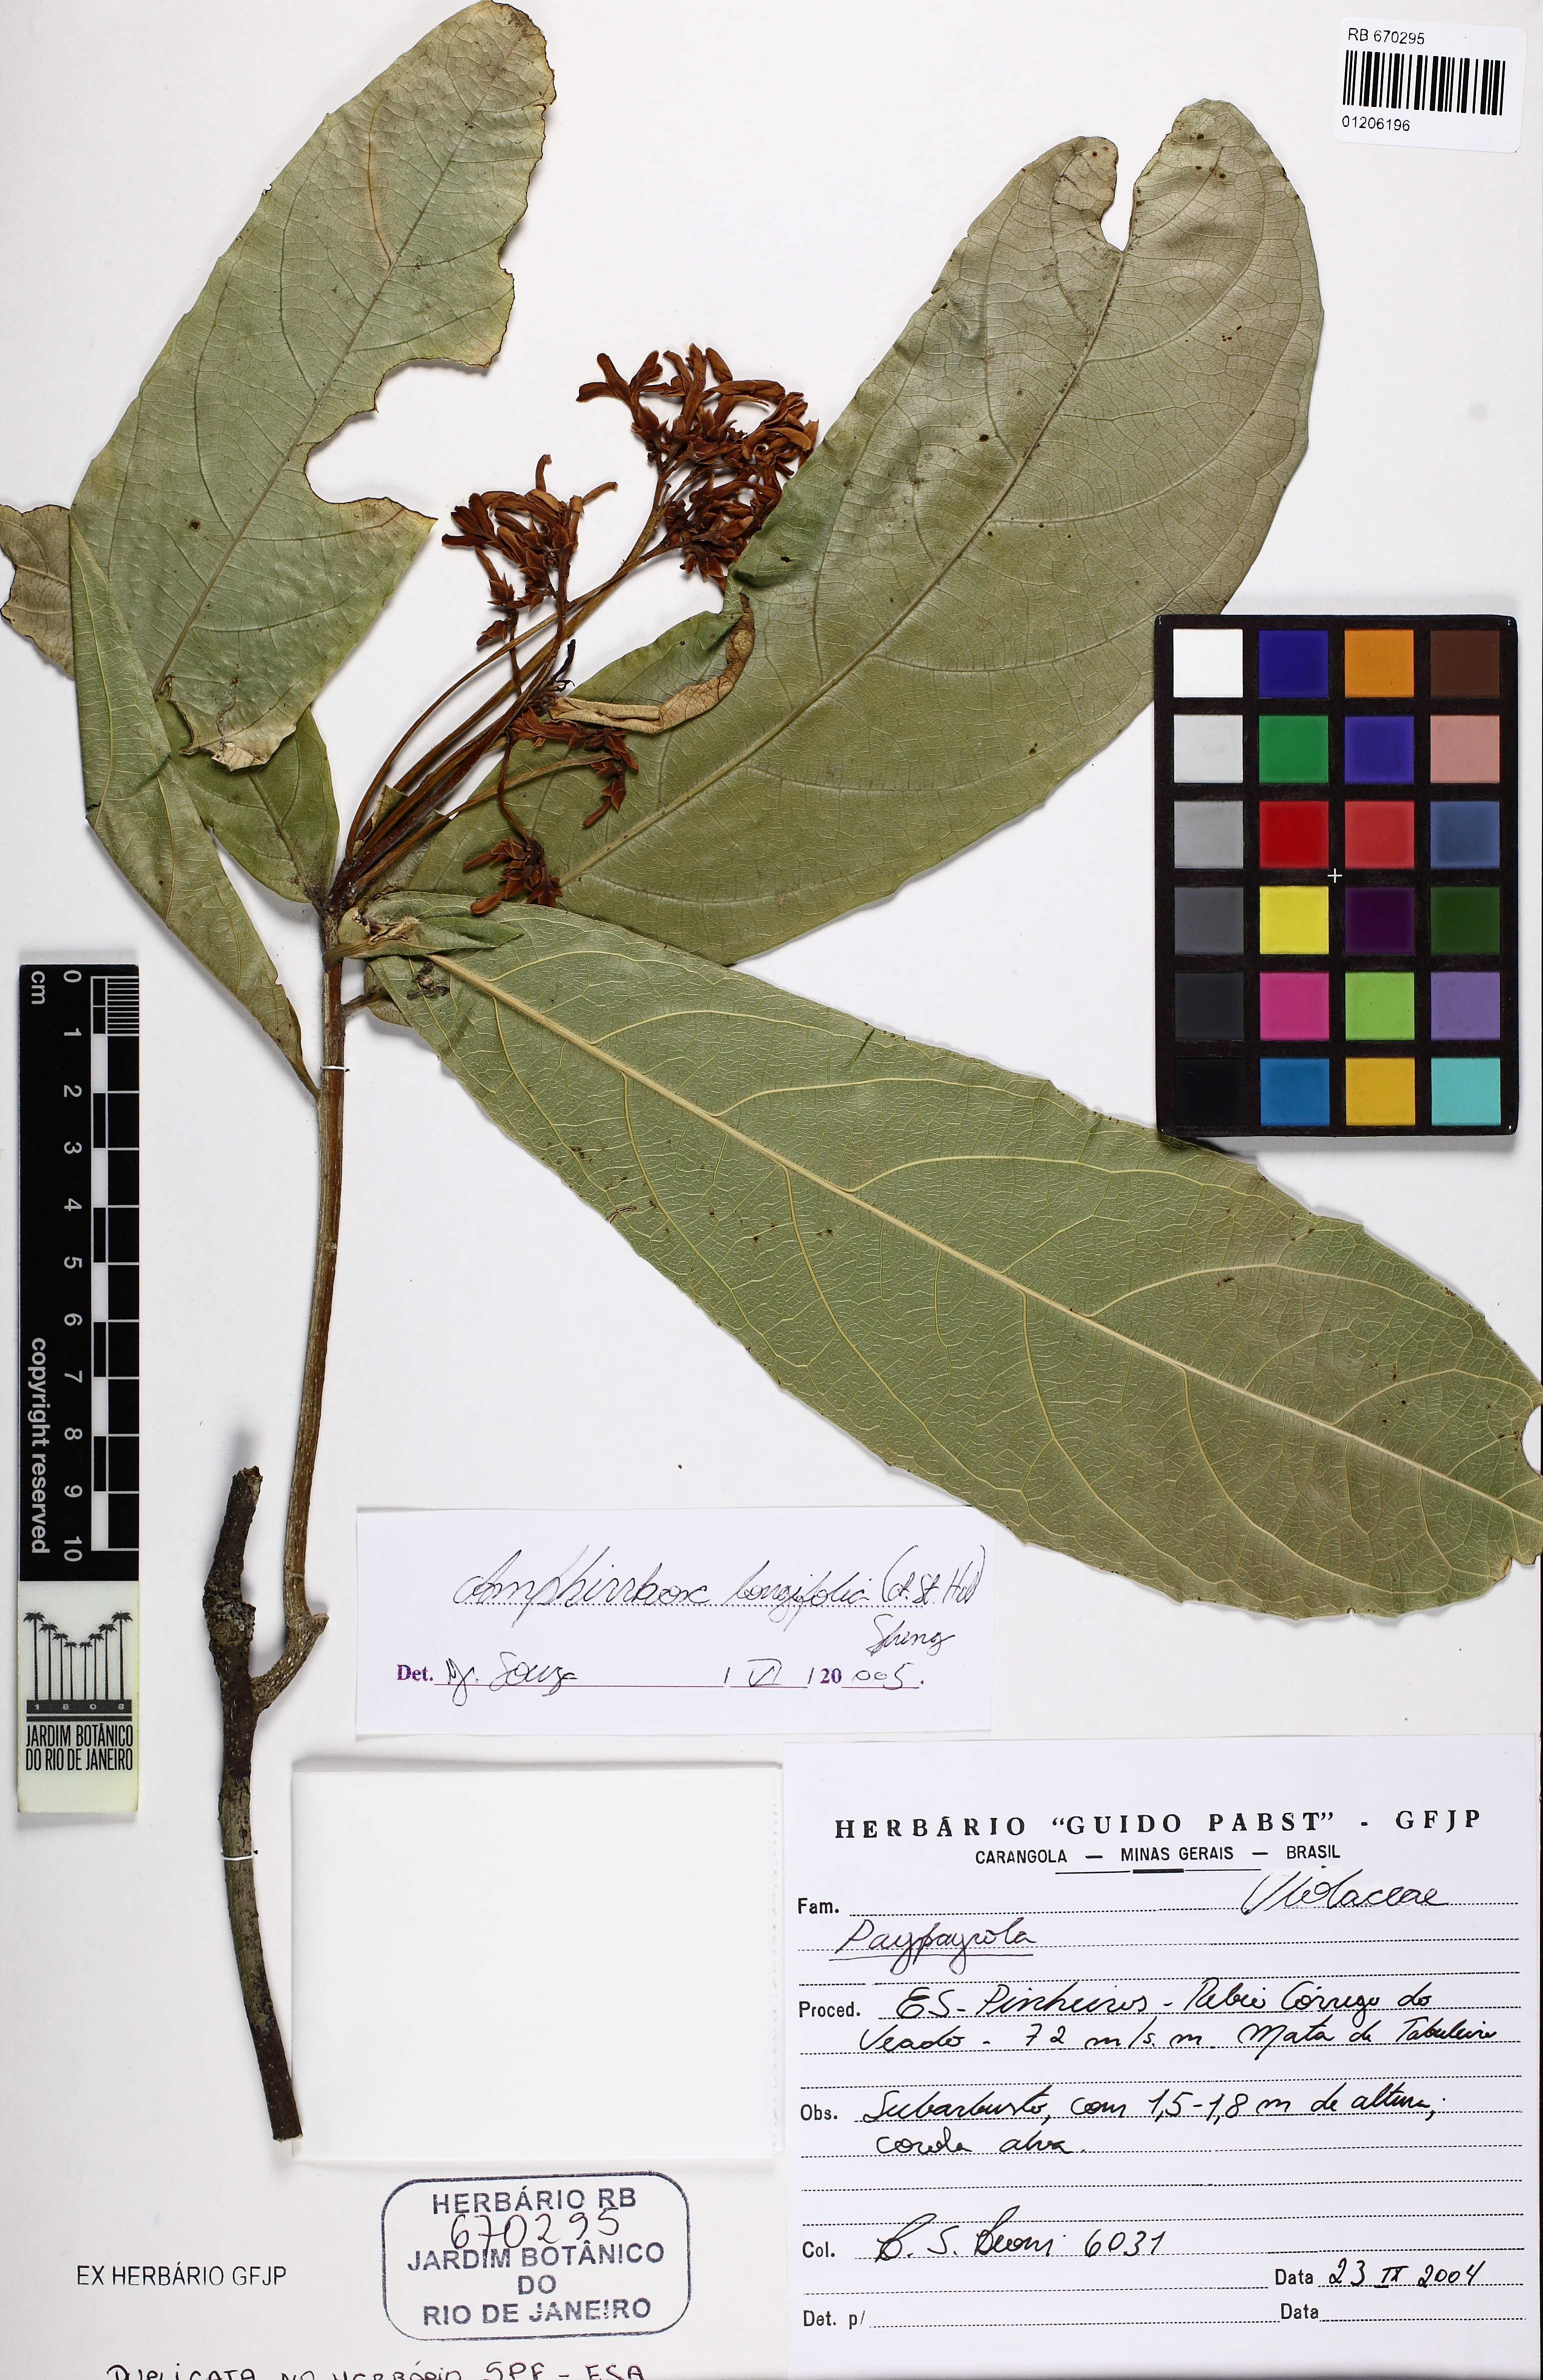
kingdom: Plantae
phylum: Tracheophyta
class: Magnoliopsida
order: Malpighiales
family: Violaceae
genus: Amphirrhox
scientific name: Amphirrhox longifolia
